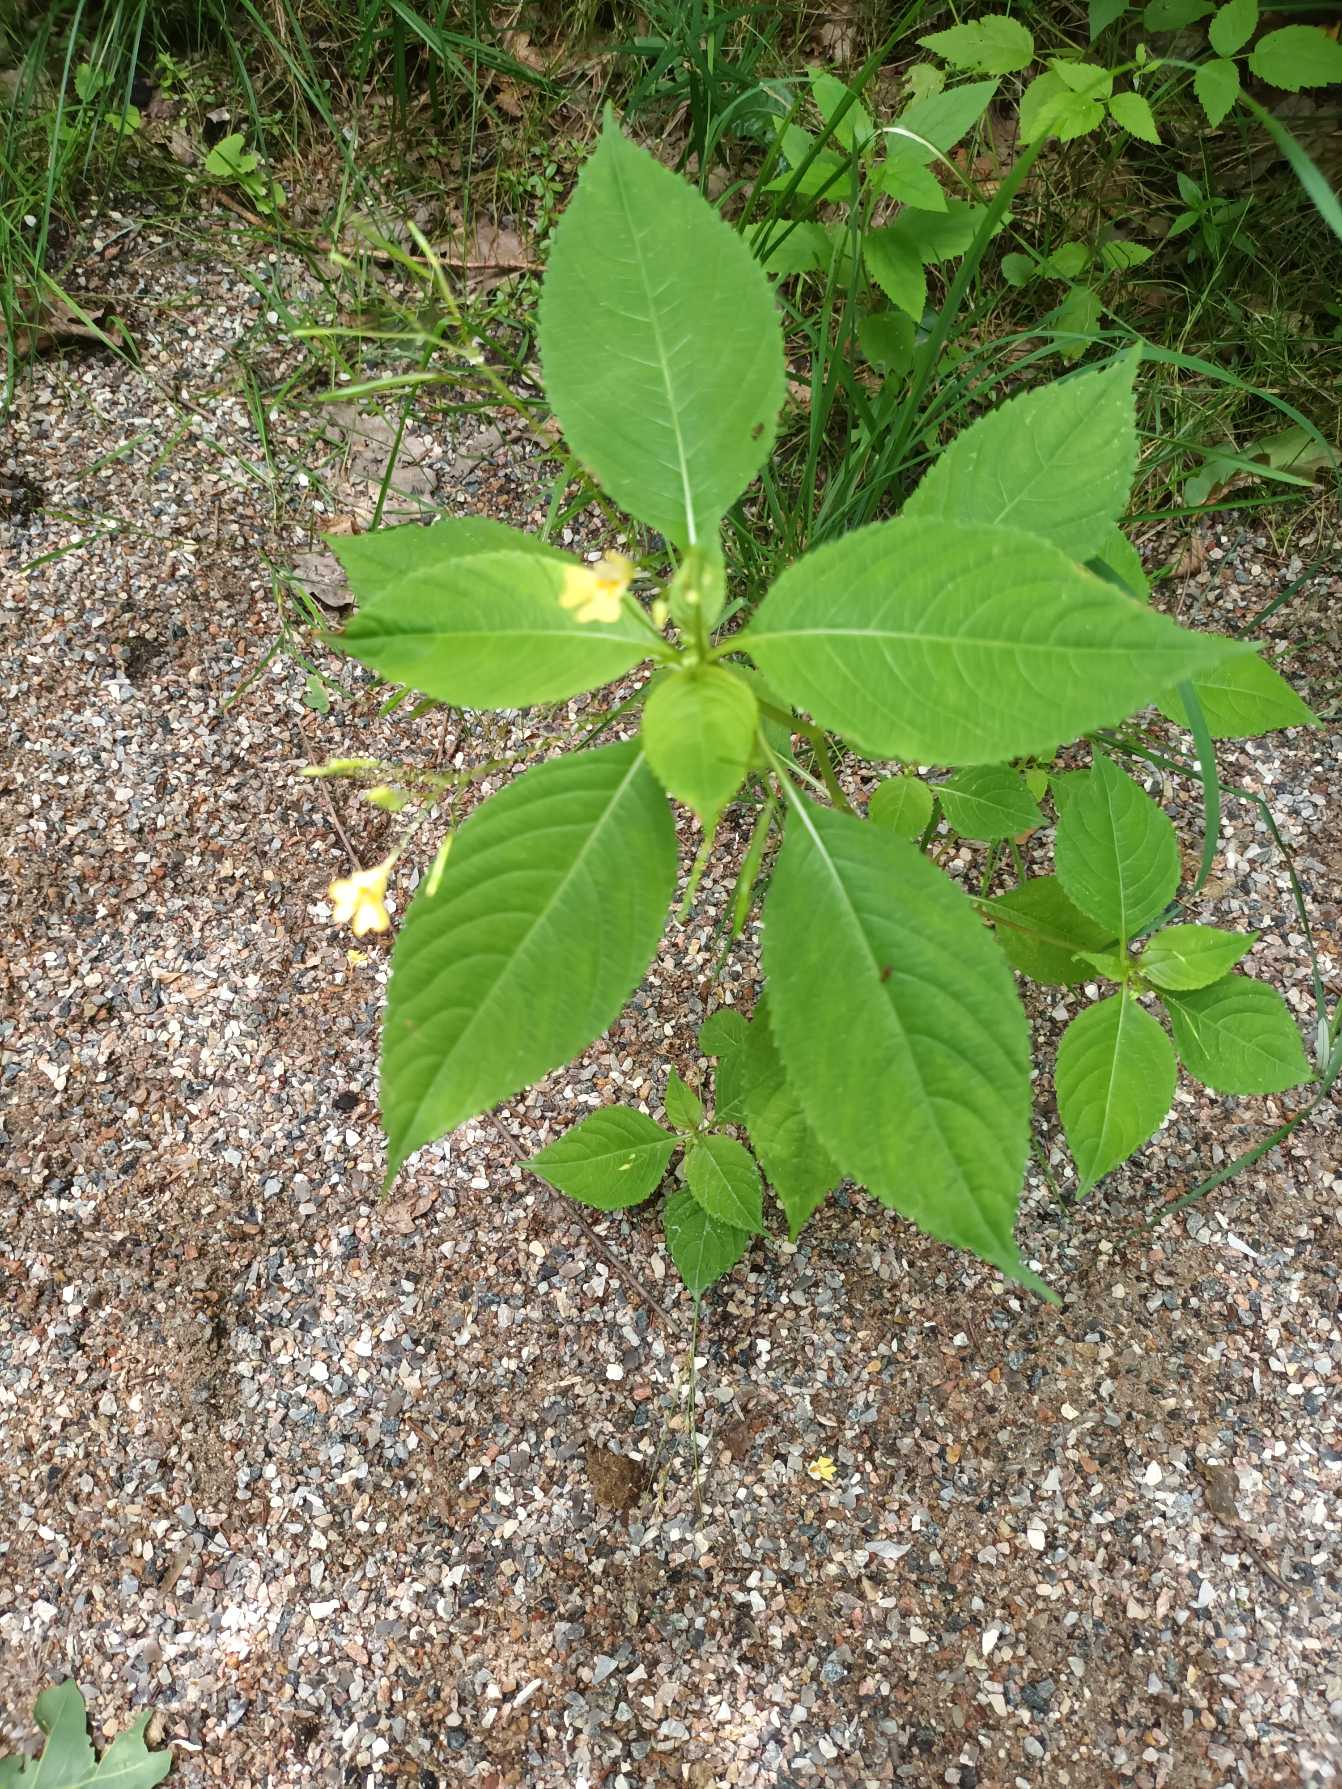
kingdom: Plantae
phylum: Tracheophyta
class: Magnoliopsida
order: Ericales
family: Balsaminaceae
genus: Impatiens
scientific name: Impatiens parviflora
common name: Småblomstret balsamin
